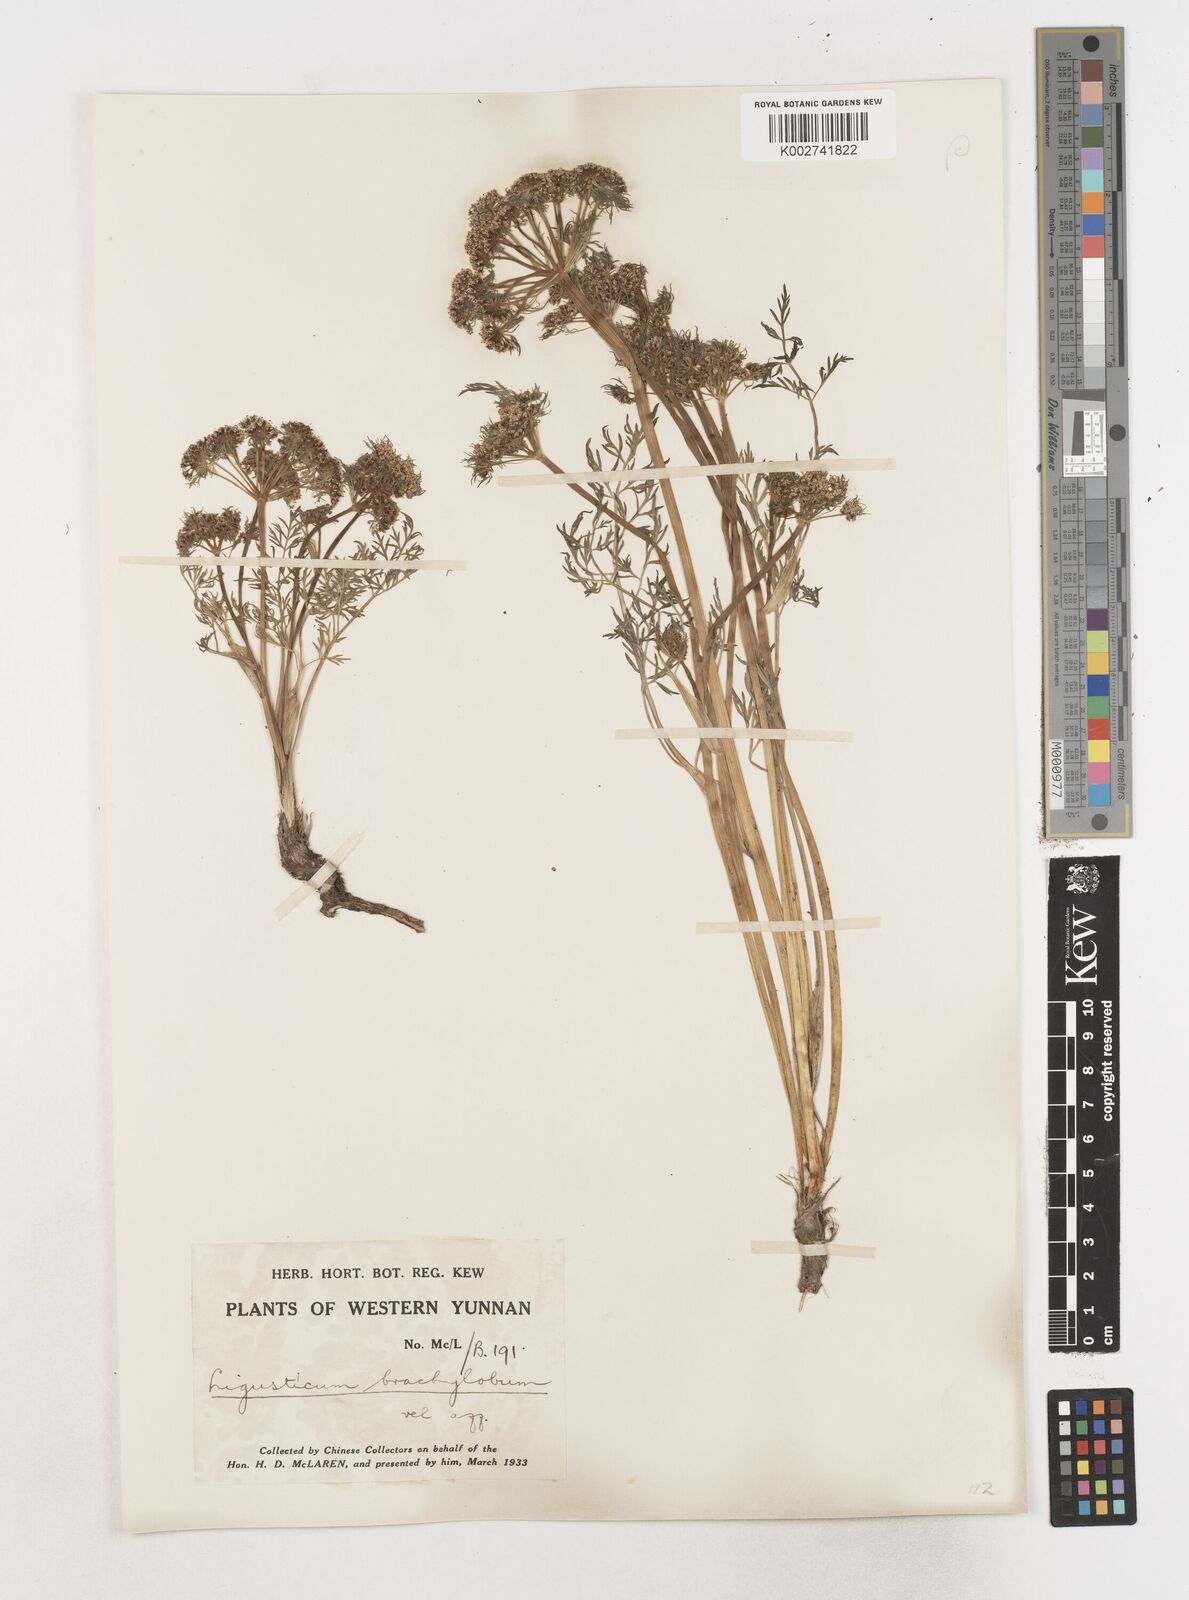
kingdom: Plantae
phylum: Tracheophyta
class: Magnoliopsida
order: Apiales
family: Apiaceae
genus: Ligusticopsis
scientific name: Ligusticopsis brachyloba
